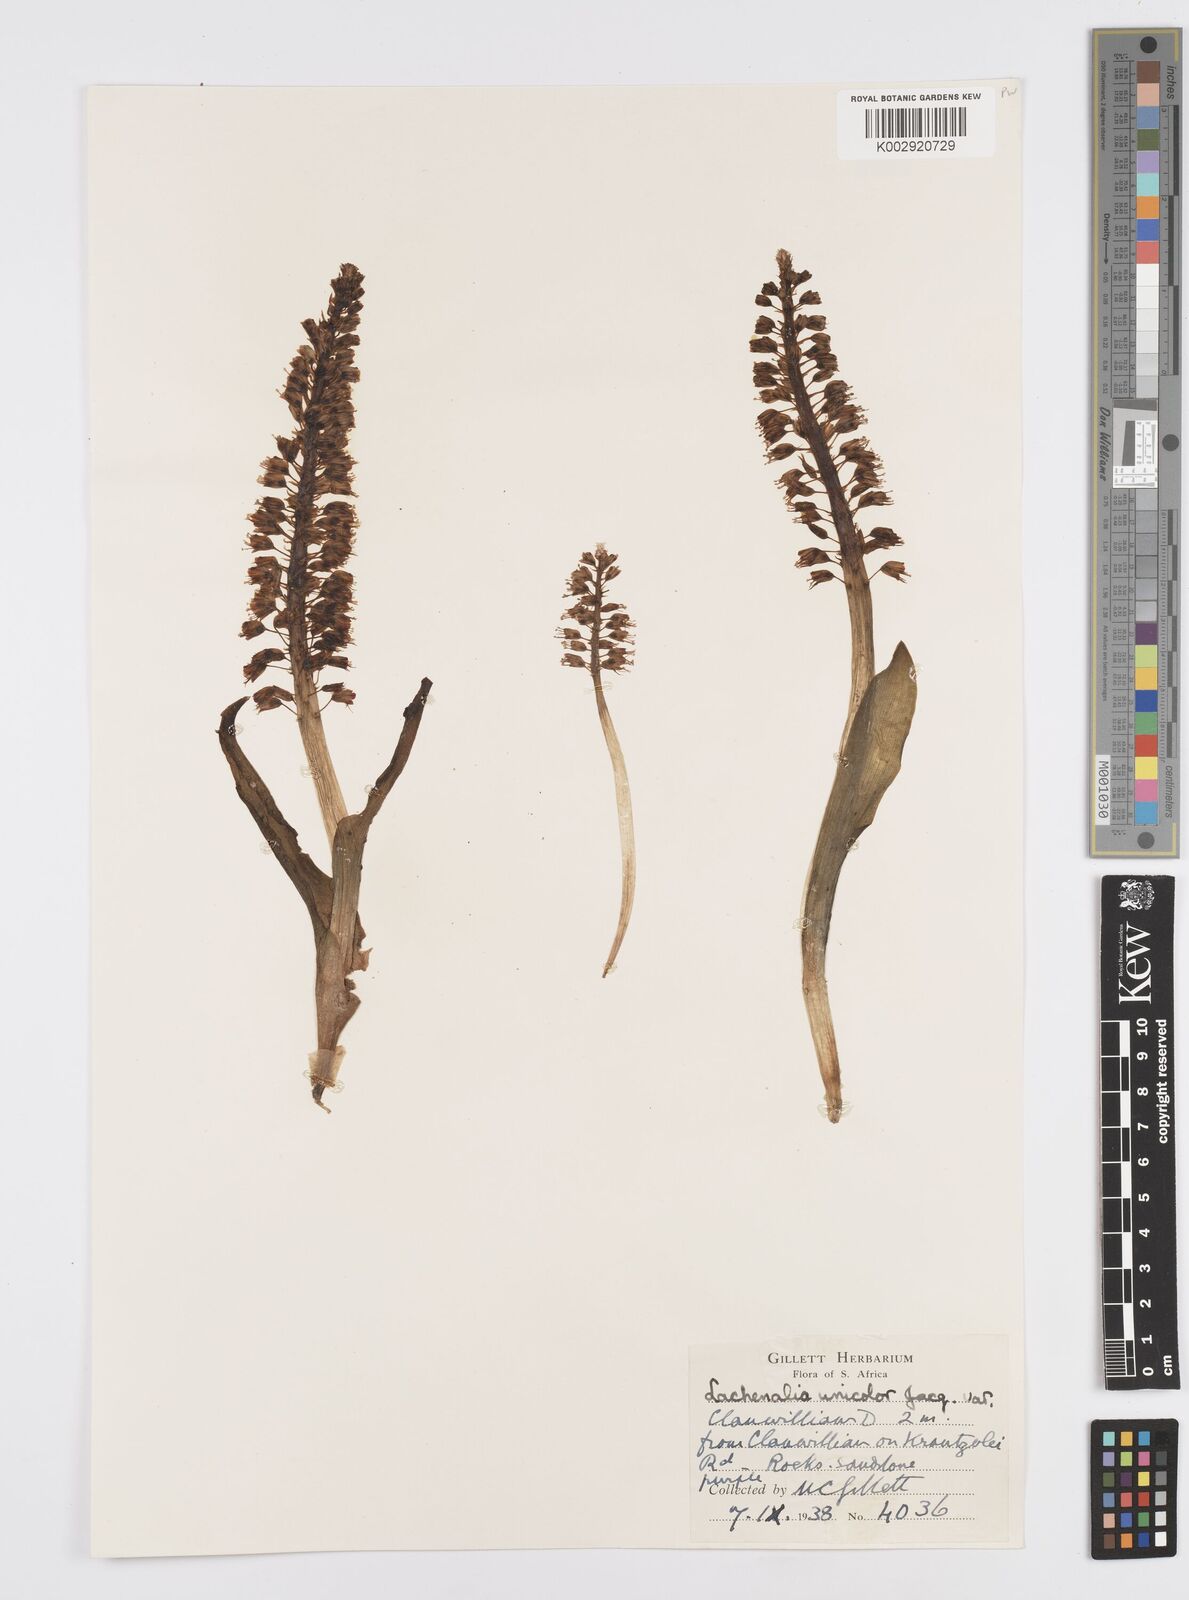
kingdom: Plantae
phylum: Tracheophyta
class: Liliopsida
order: Asparagales
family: Asparagaceae
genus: Lachenalia
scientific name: Lachenalia pallida
